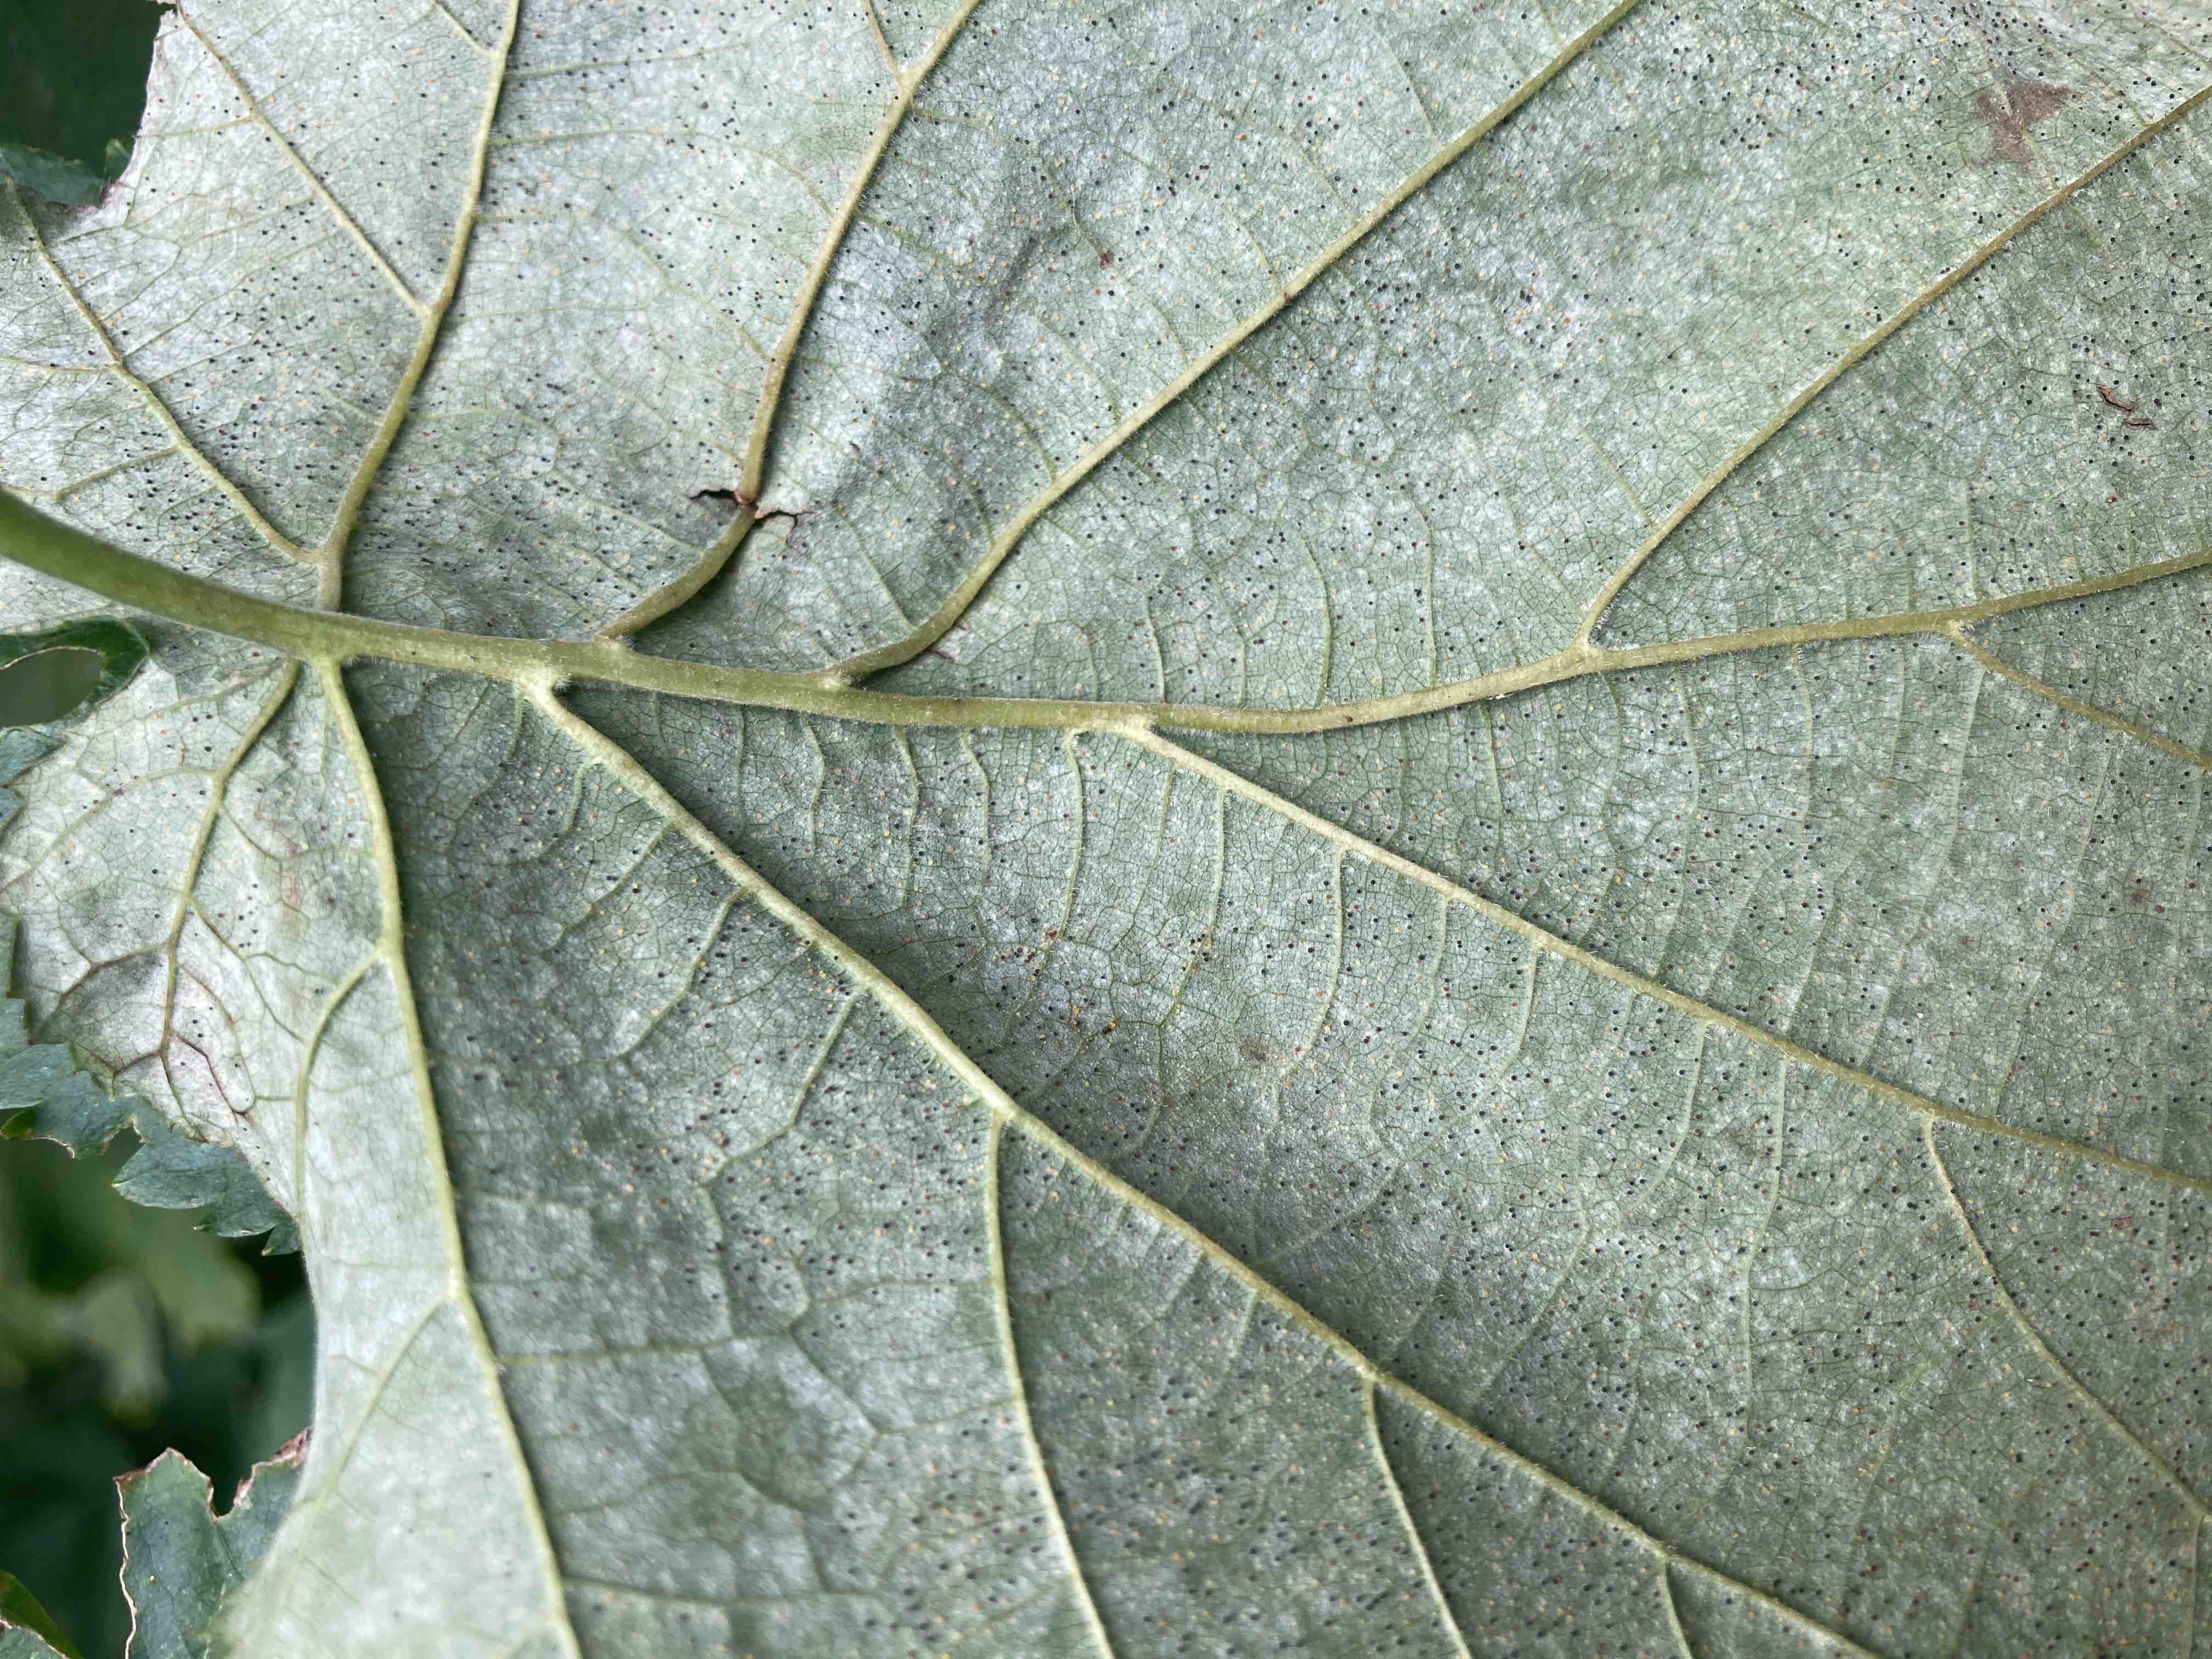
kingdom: Fungi
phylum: Ascomycota
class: Leotiomycetes
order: Helotiales
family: Erysiphaceae
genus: Phyllactinia
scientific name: Phyllactinia guttata
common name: hassel-meldug
